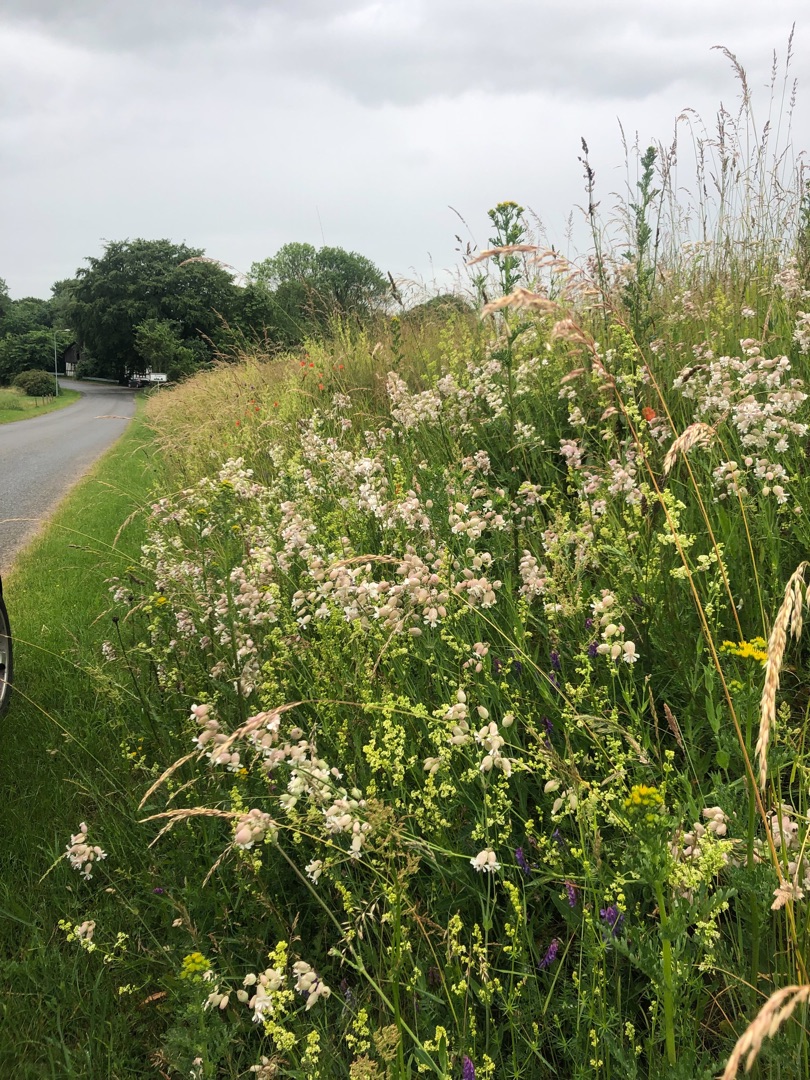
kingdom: Plantae
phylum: Tracheophyta
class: Magnoliopsida
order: Caryophyllales
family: Caryophyllaceae
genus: Silene
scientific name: Silene vulgaris
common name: Blæresmælde
